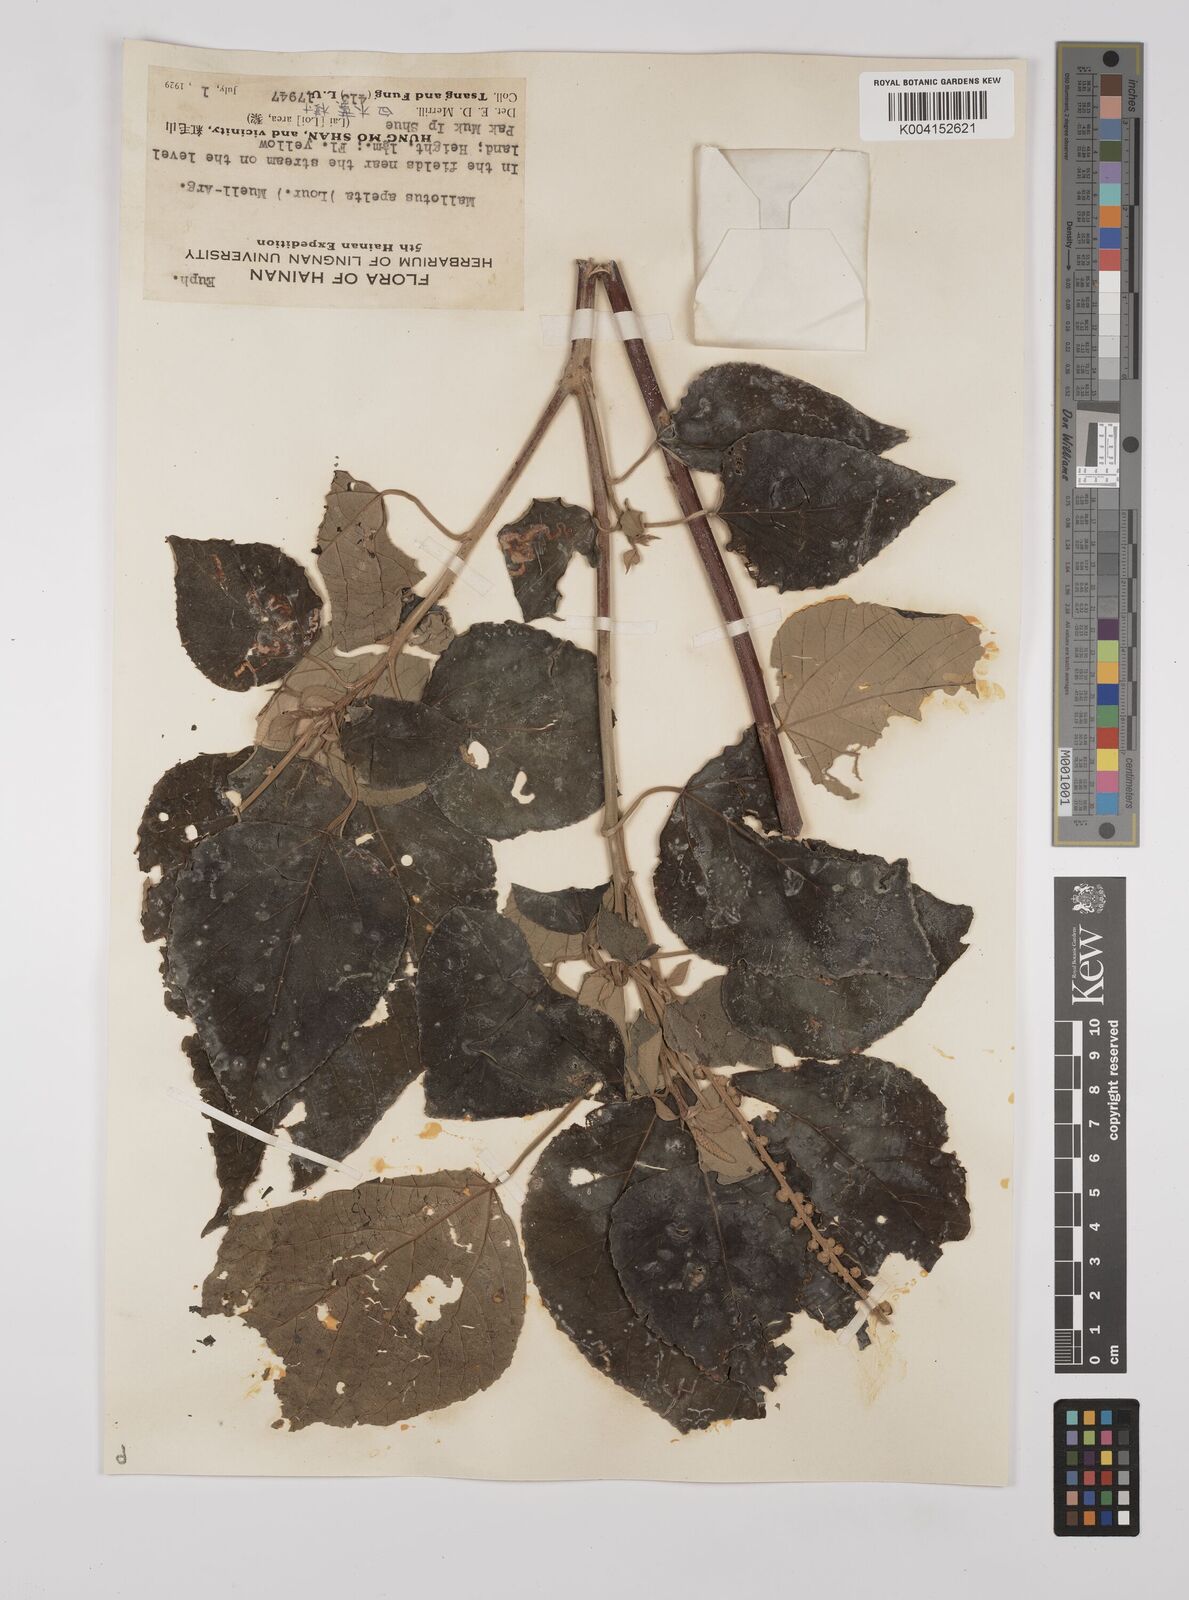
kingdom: Plantae
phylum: Tracheophyta
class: Magnoliopsida
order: Malpighiales
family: Euphorbiaceae
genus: Mallotus
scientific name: Mallotus apelta
